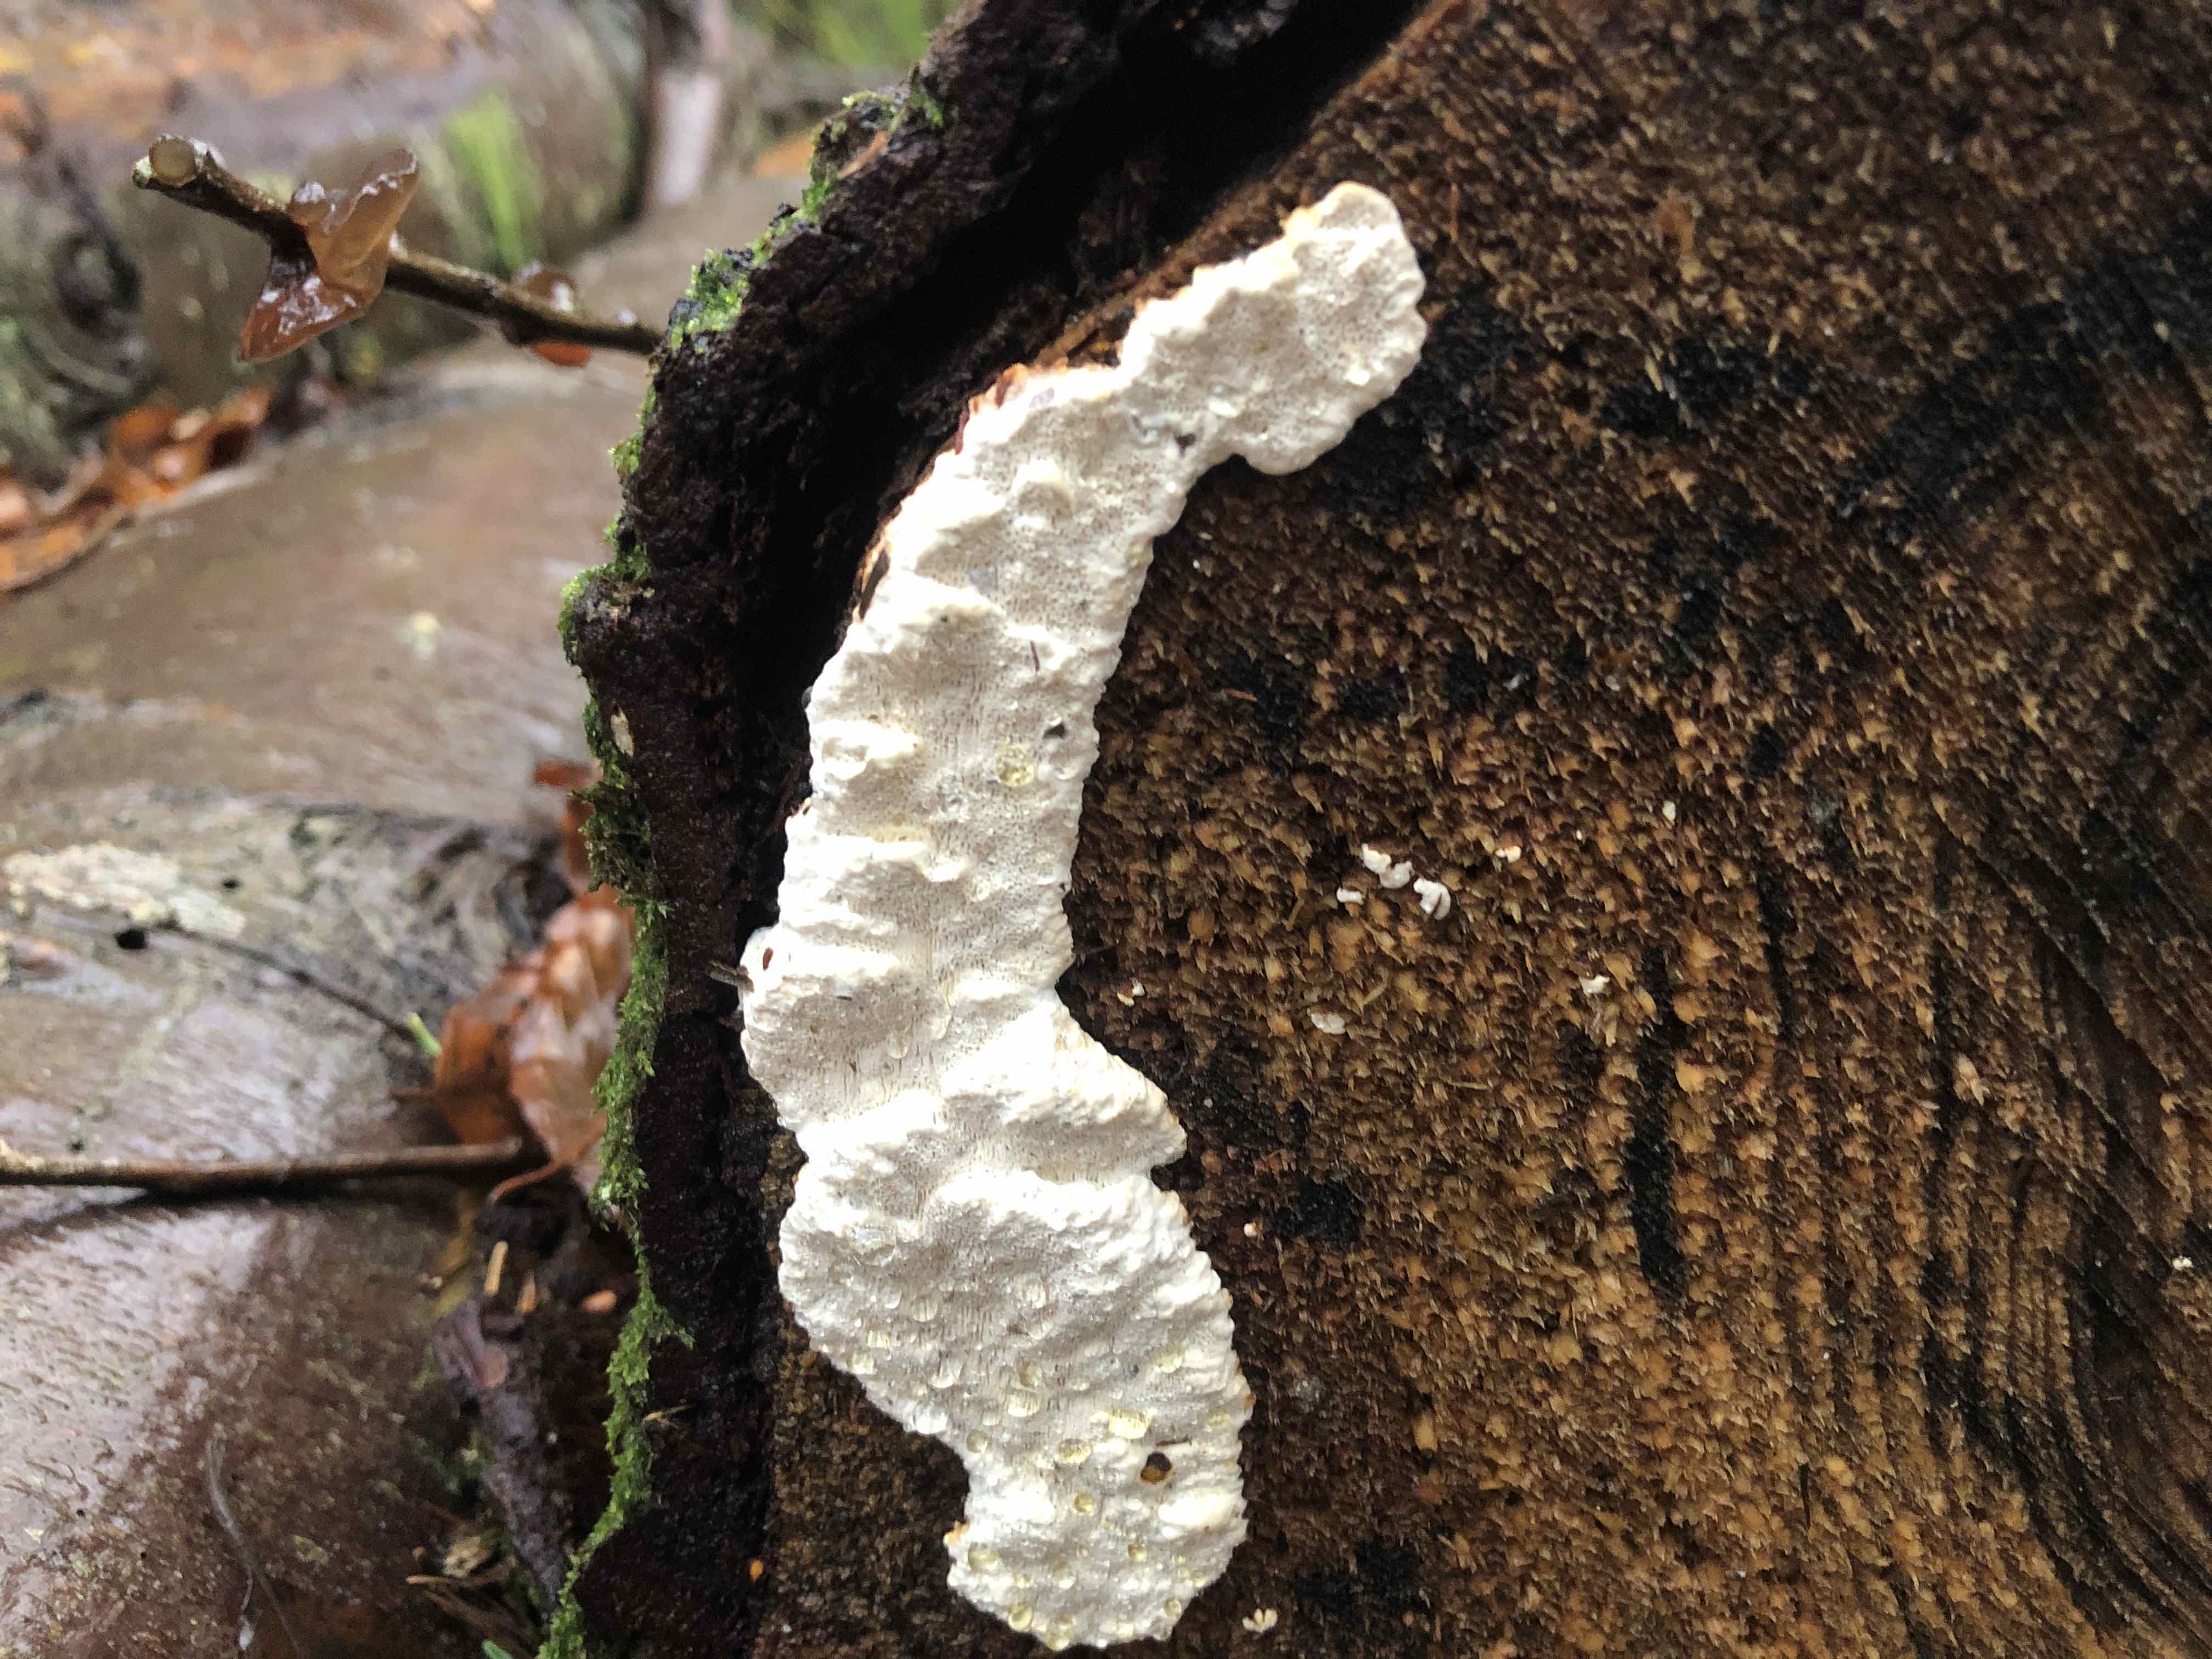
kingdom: Fungi
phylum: Basidiomycota
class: Agaricomycetes
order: Polyporales
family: Fomitopsidaceae
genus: Neoantrodia
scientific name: Neoantrodia serialis
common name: række-sejporesvamp
